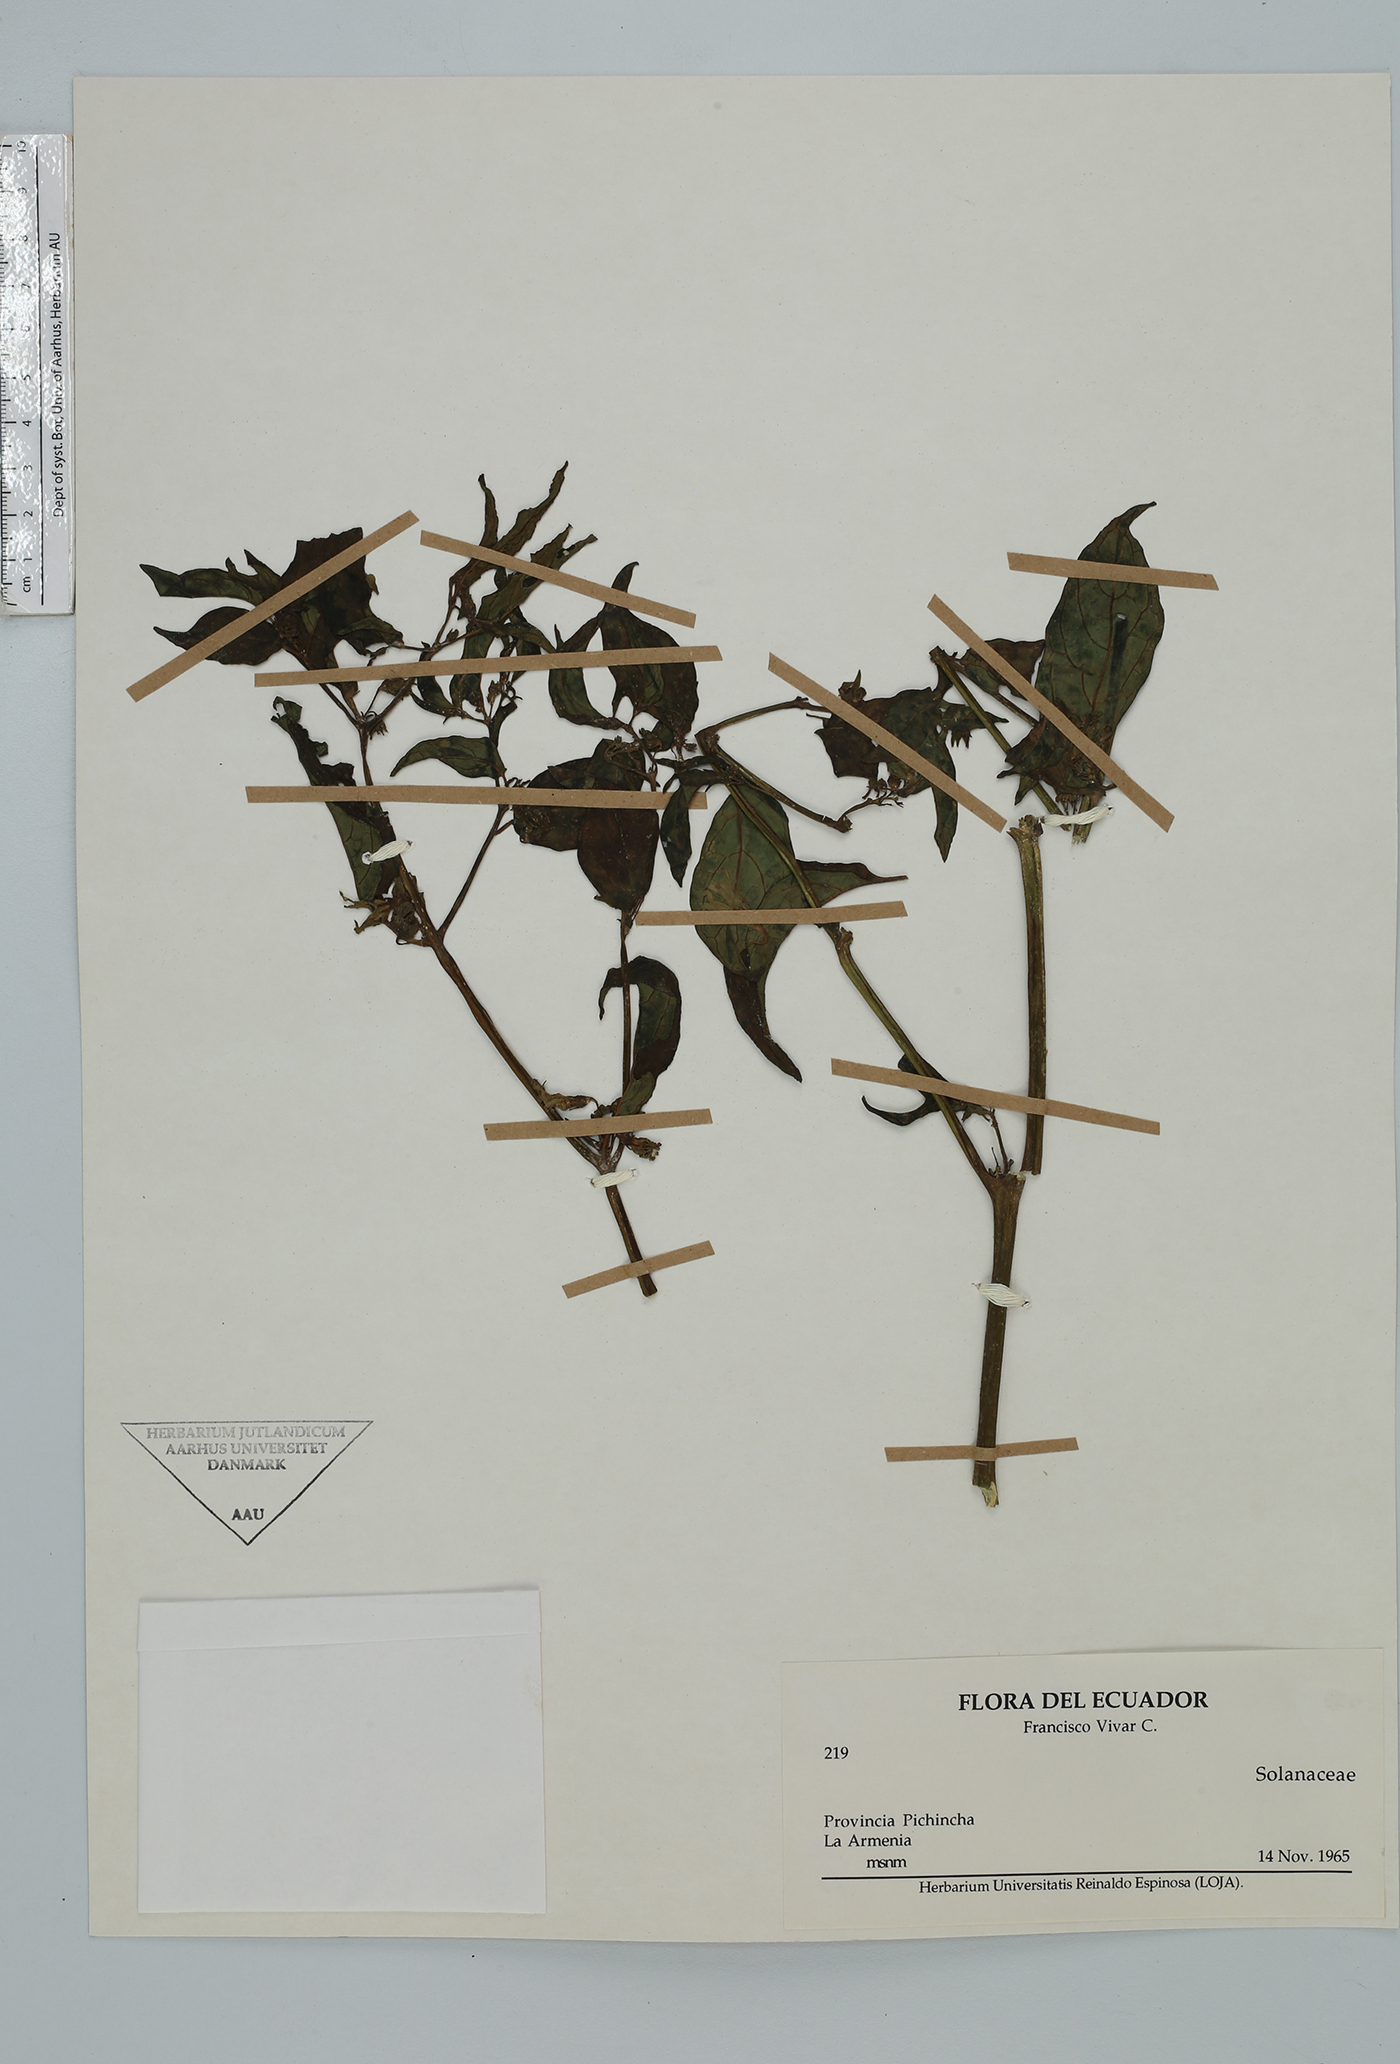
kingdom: Plantae
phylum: Tracheophyta
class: Magnoliopsida
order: Solanales
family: Solanaceae
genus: Deprea
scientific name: Deprea
